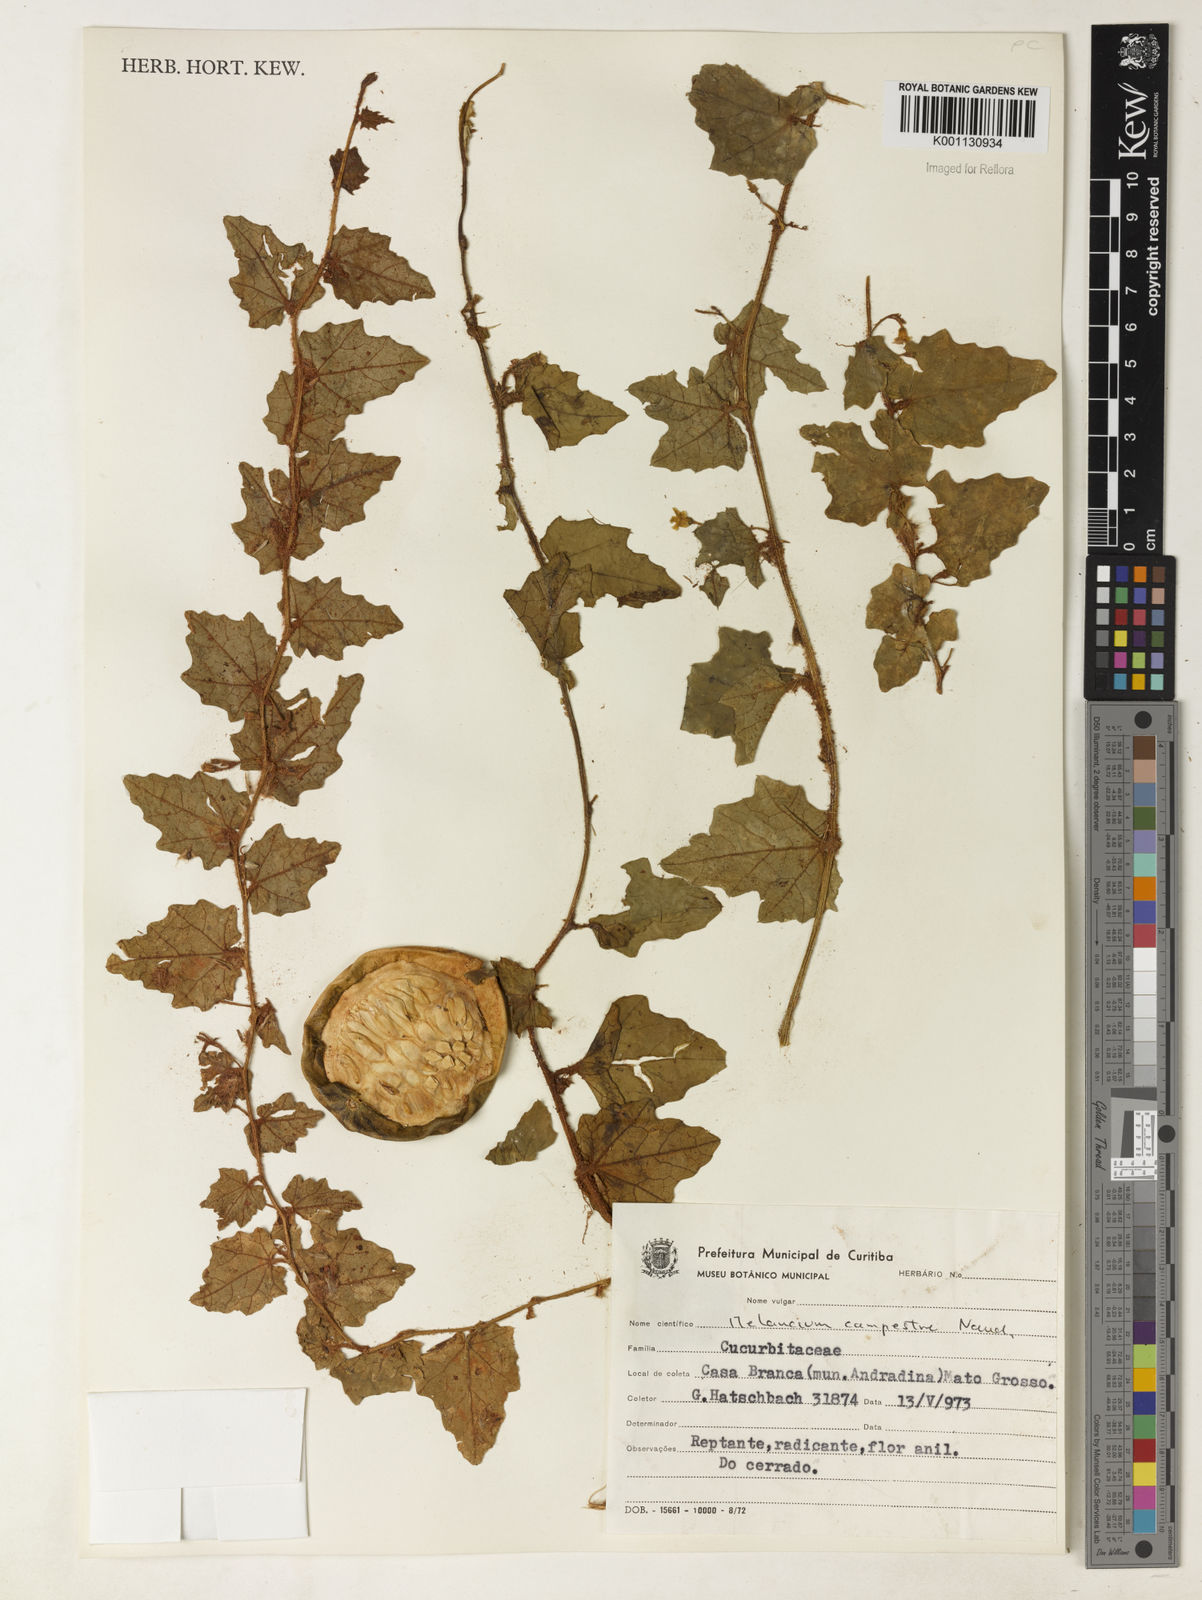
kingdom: Plantae
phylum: Tracheophyta
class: Magnoliopsida
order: Cucurbitales
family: Cucurbitaceae
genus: Melothria
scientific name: Melothria campestris
